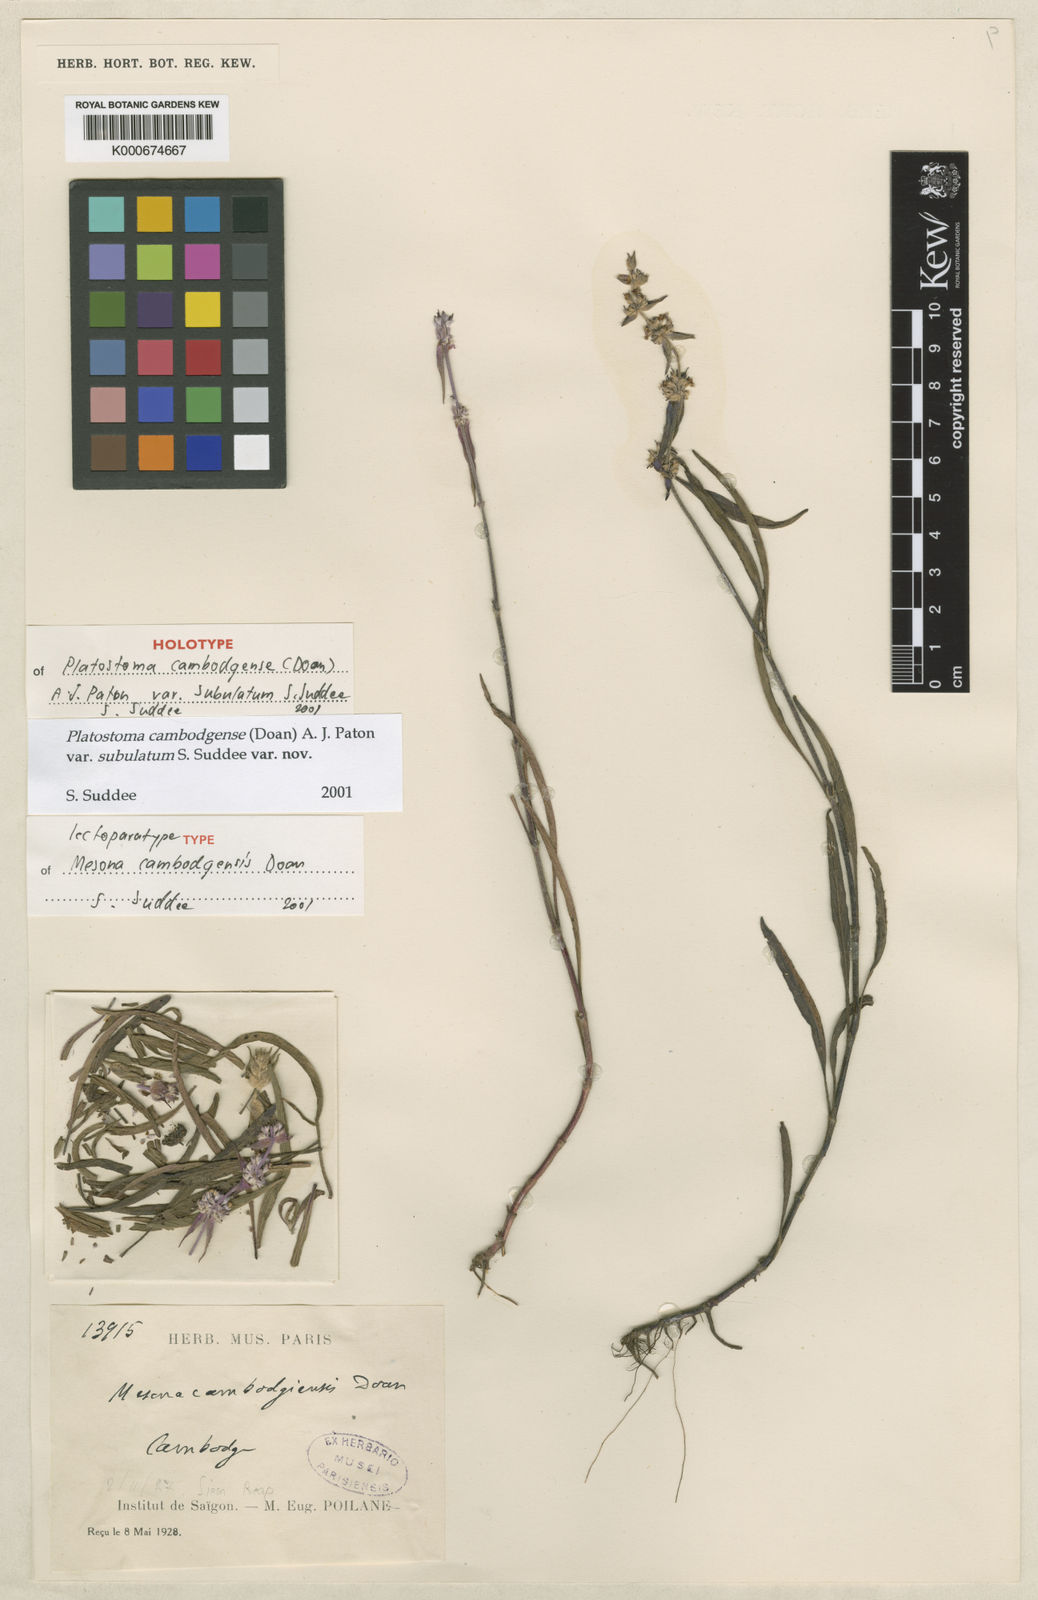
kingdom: Plantae
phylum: Tracheophyta
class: Magnoliopsida
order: Lamiales
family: Lamiaceae
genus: Platostoma
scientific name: Platostoma cambodgense
